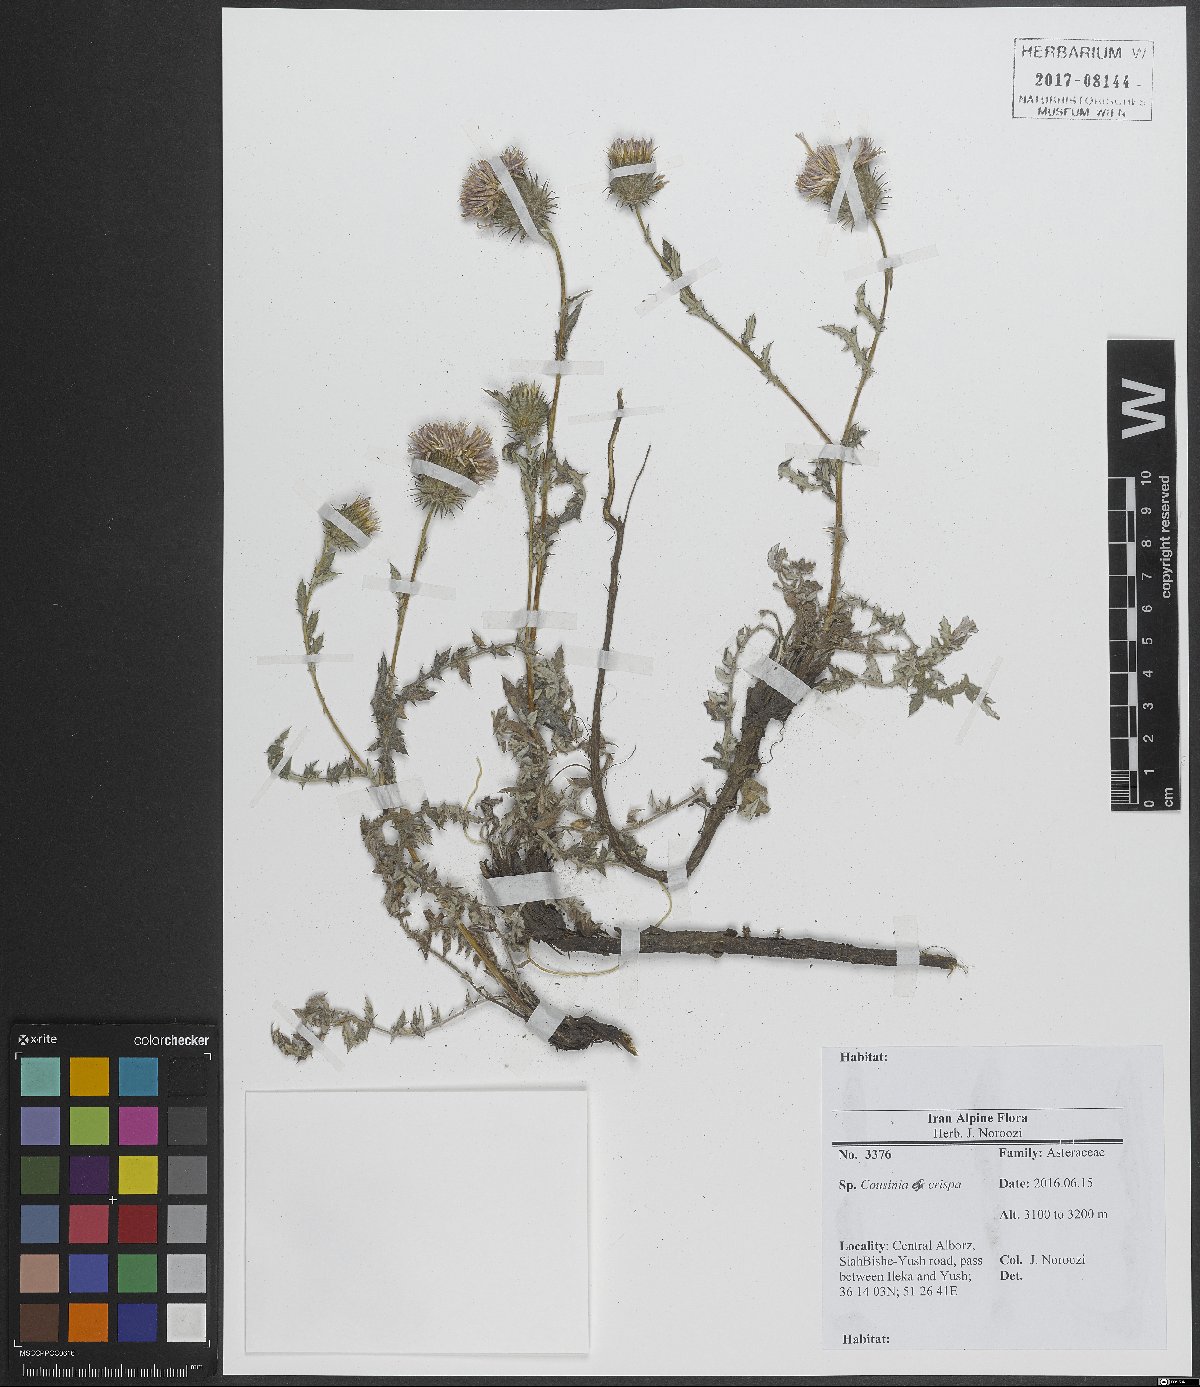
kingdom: Plantae
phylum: Tracheophyta
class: Magnoliopsida
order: Asterales
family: Asteraceae
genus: Cousinia
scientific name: Cousinia crispa
